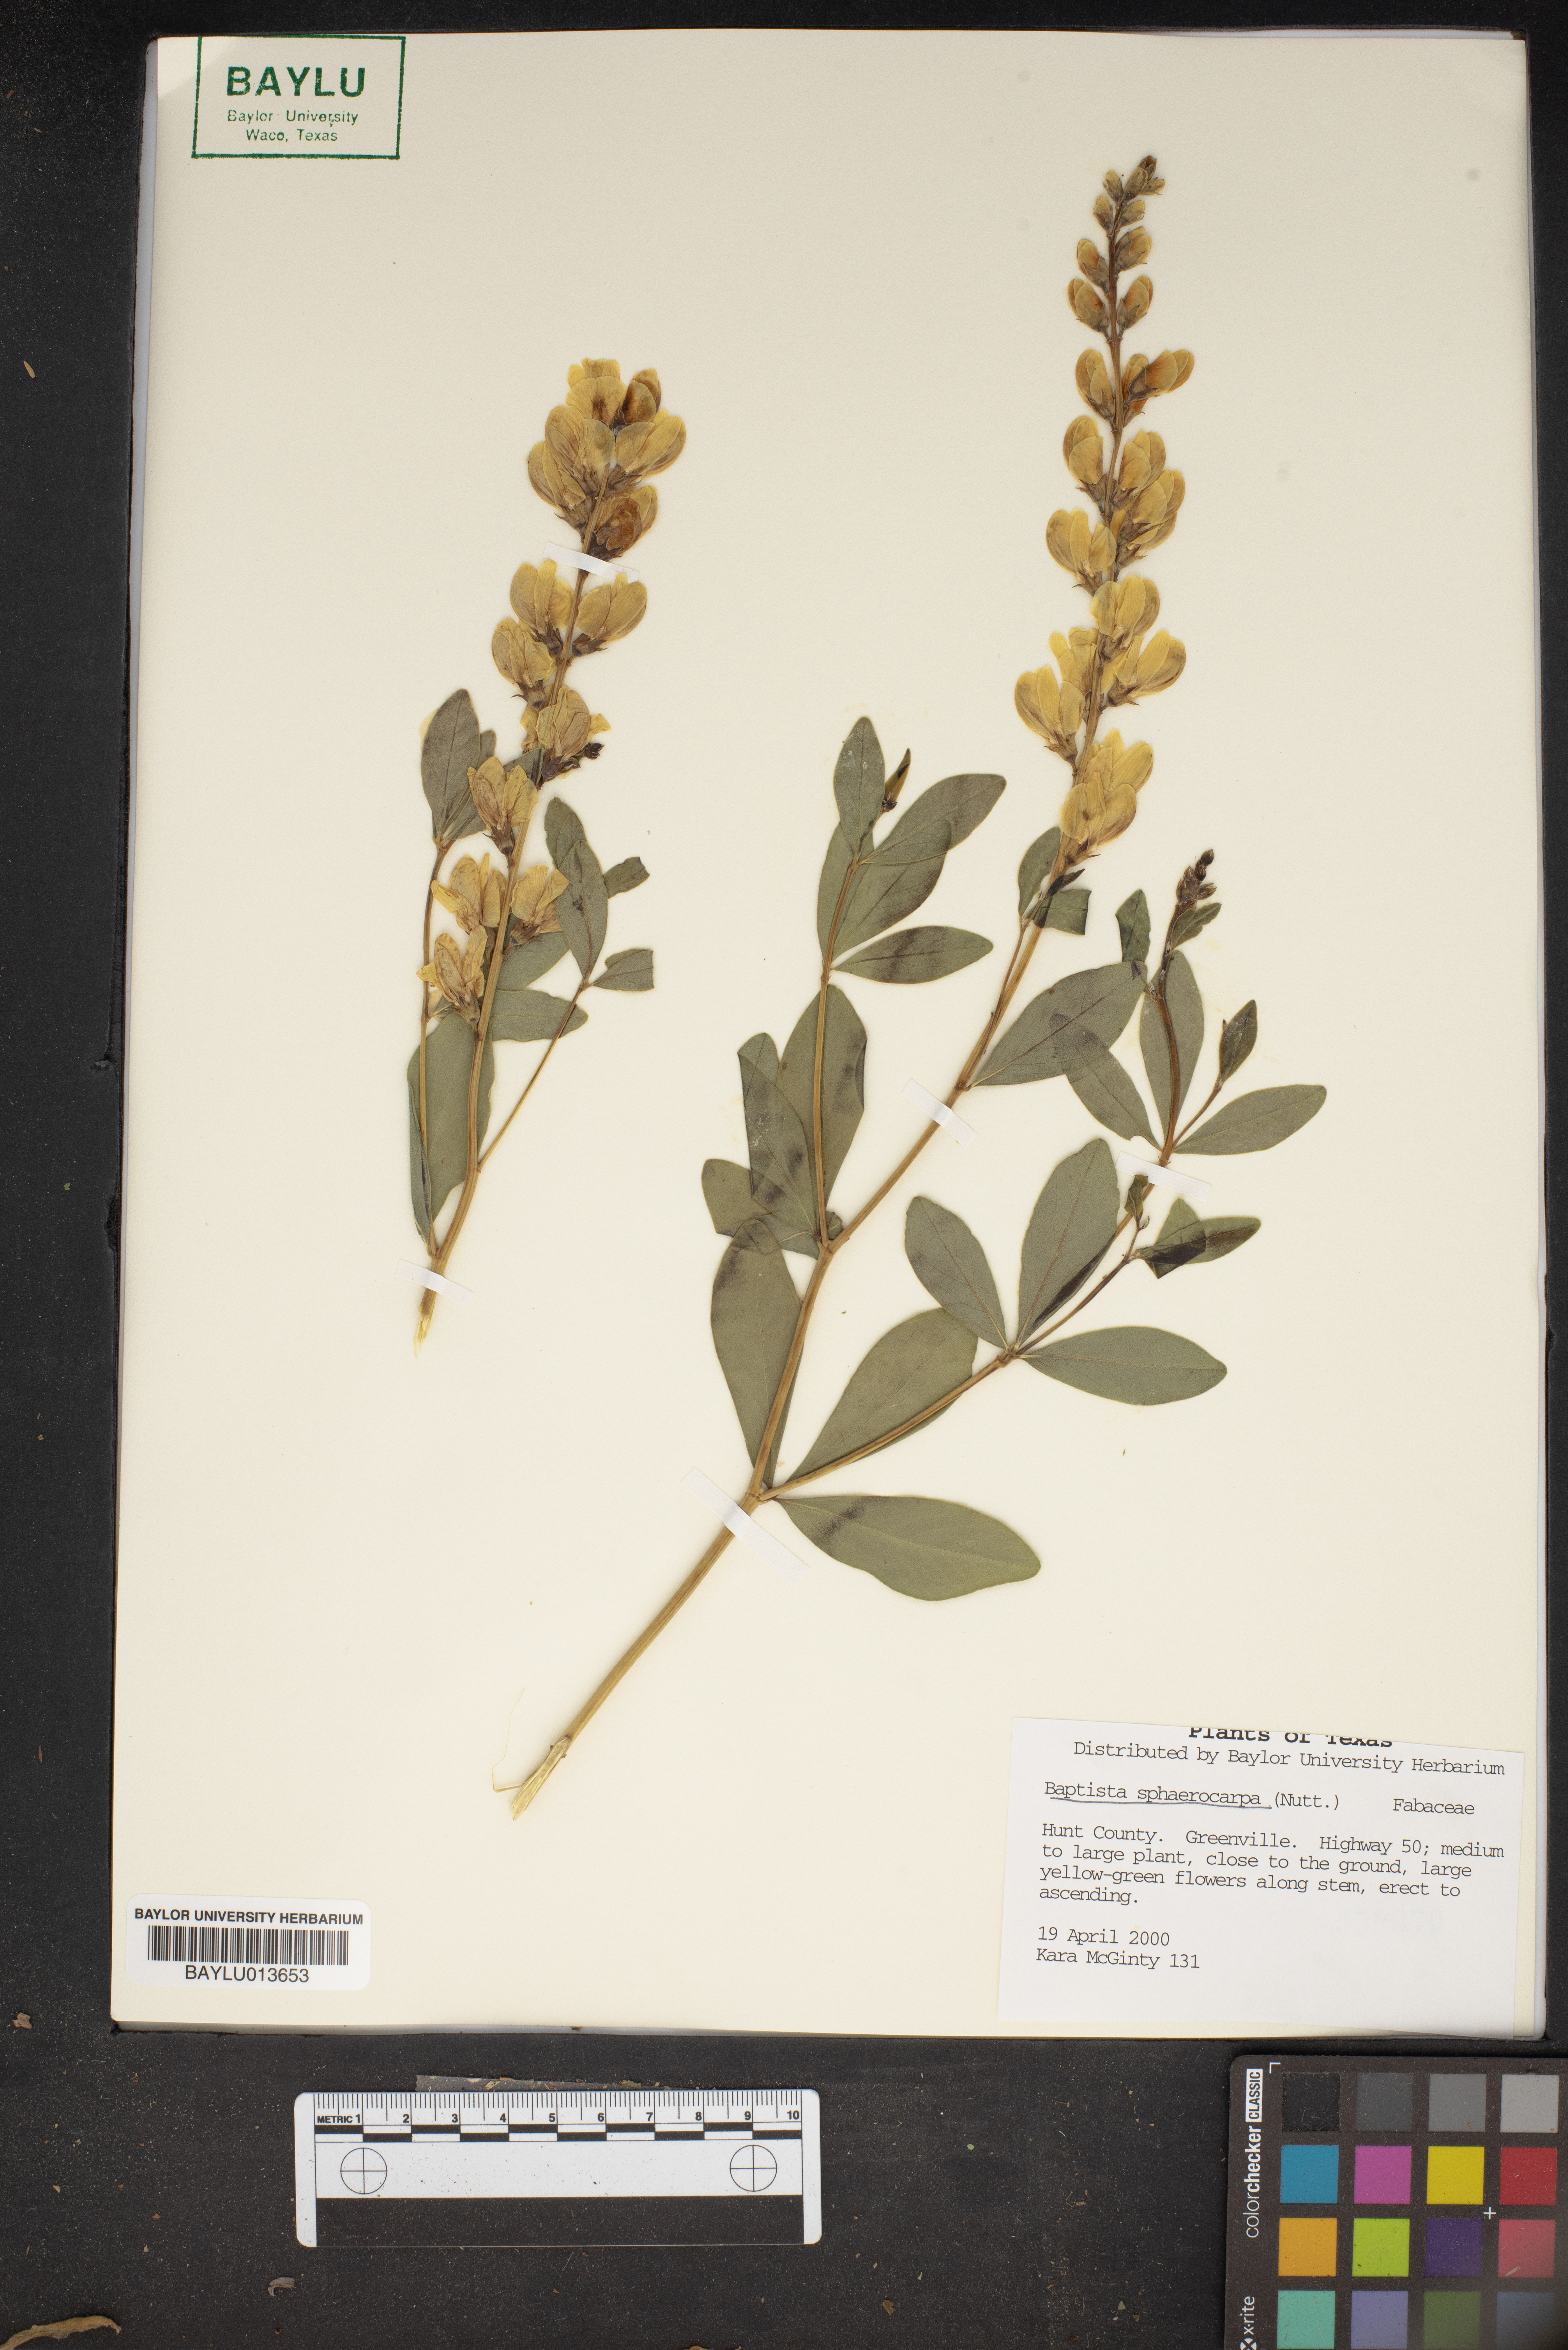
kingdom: Plantae
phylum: Tracheophyta
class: Magnoliopsida
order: Fabales
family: Fabaceae
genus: Baptisia
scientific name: Baptisia sphaerocarpa
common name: Round wild indigo
